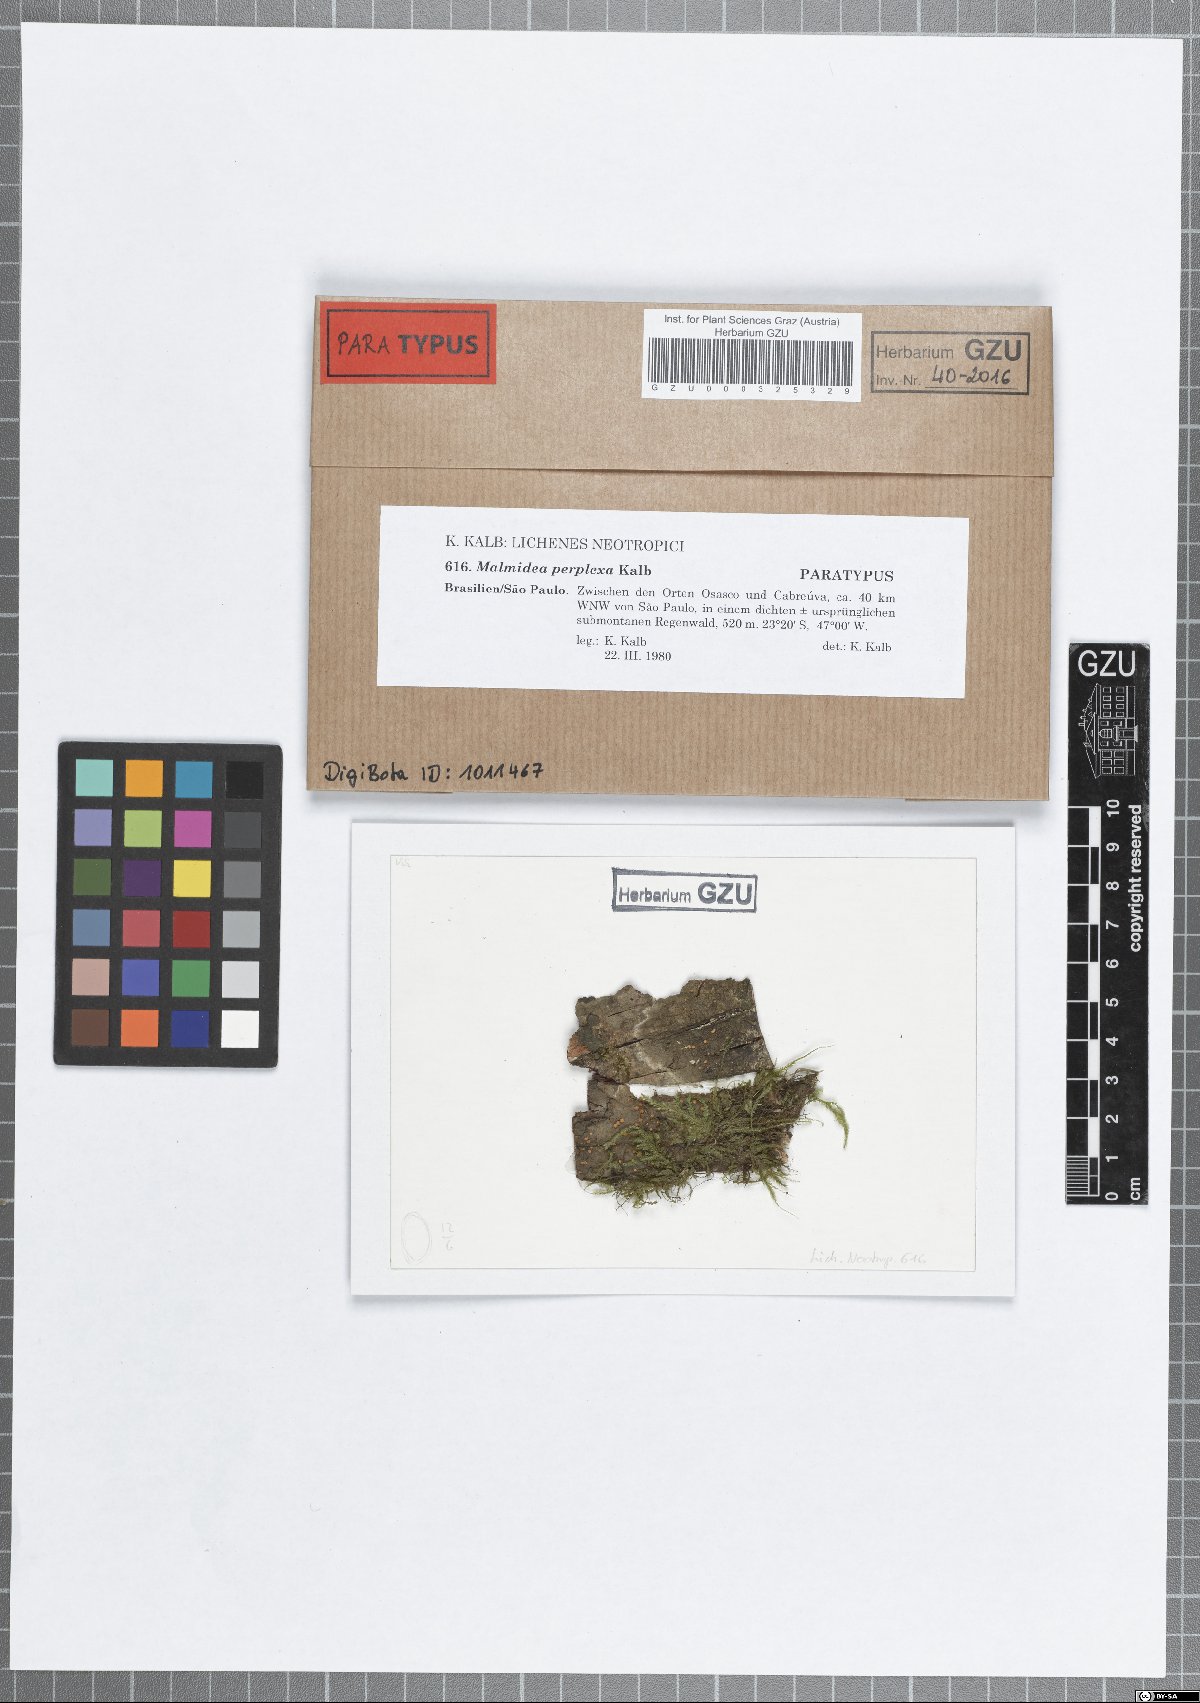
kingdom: Fungi
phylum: Ascomycota
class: Lecanoromycetes
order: Lecanorales
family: Malmideaceae
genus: Malmidea
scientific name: Malmidea perplexa
